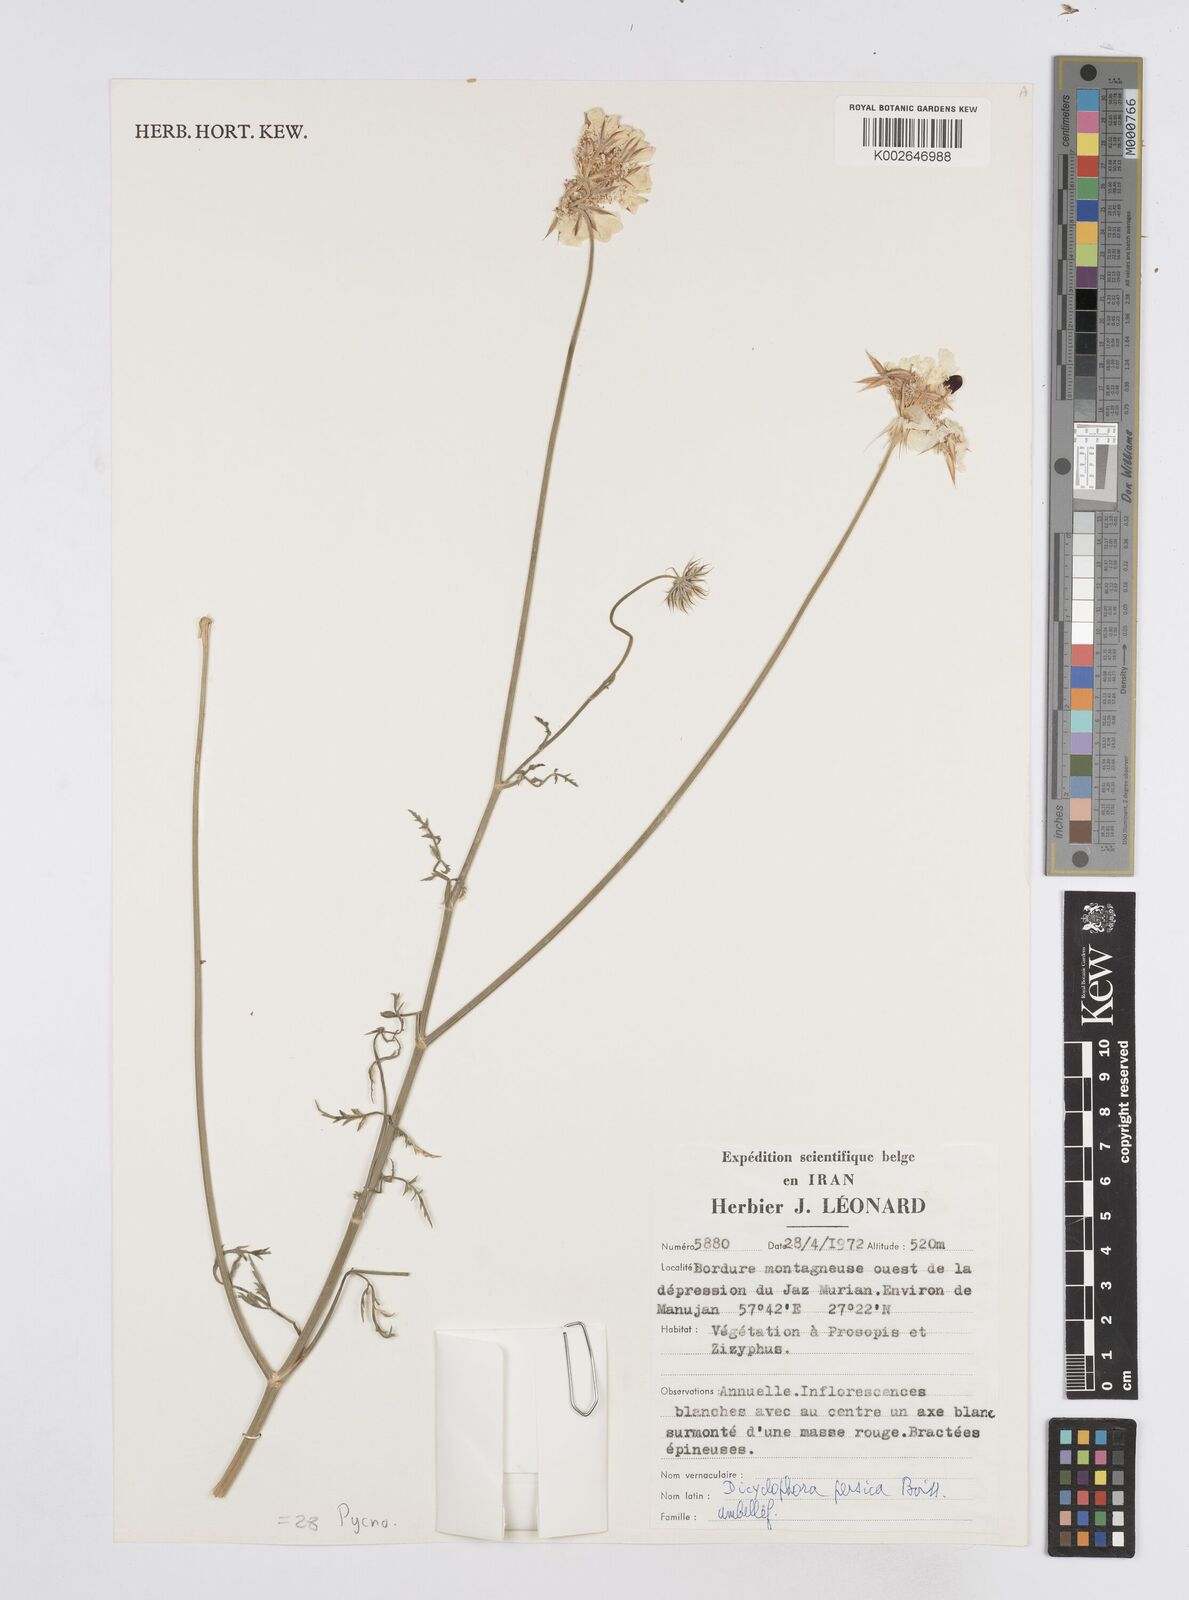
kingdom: Plantae
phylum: Tracheophyta
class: Magnoliopsida
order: Apiales
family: Apiaceae
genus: Dicyclophora
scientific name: Dicyclophora persica
